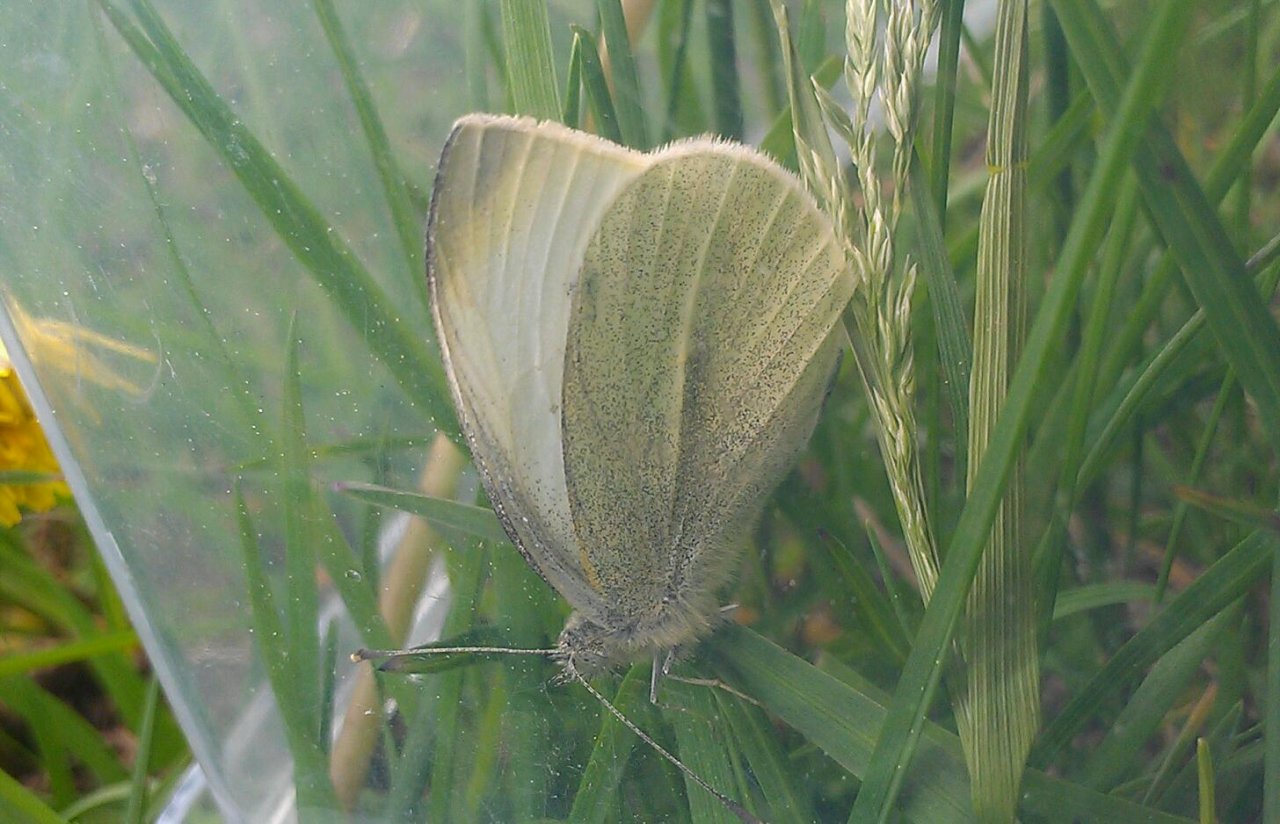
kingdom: Animalia
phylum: Arthropoda
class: Insecta
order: Lepidoptera
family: Pieridae
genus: Pieris
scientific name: Pieris rapae
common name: Cabbage White
